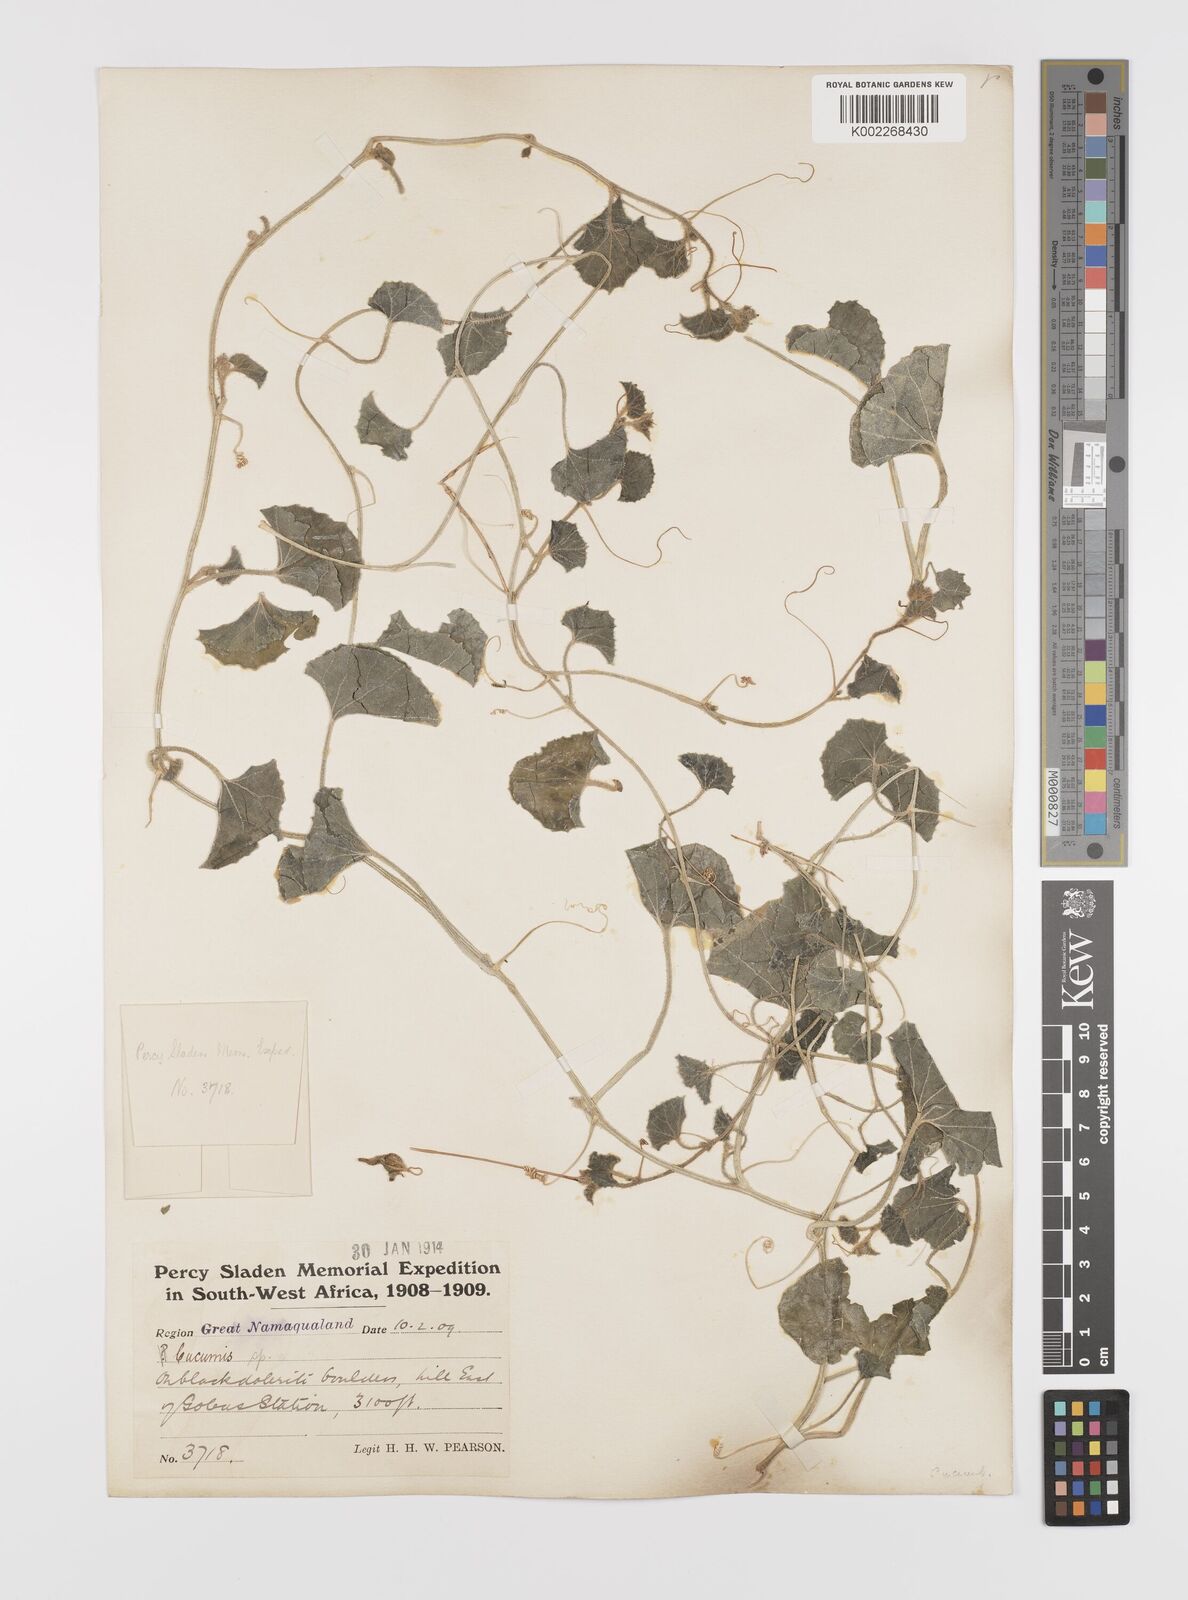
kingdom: Plantae
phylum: Tracheophyta
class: Magnoliopsida
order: Cucurbitales
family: Cucurbitaceae
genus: Cucumis
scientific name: Cucumis sagittatus
